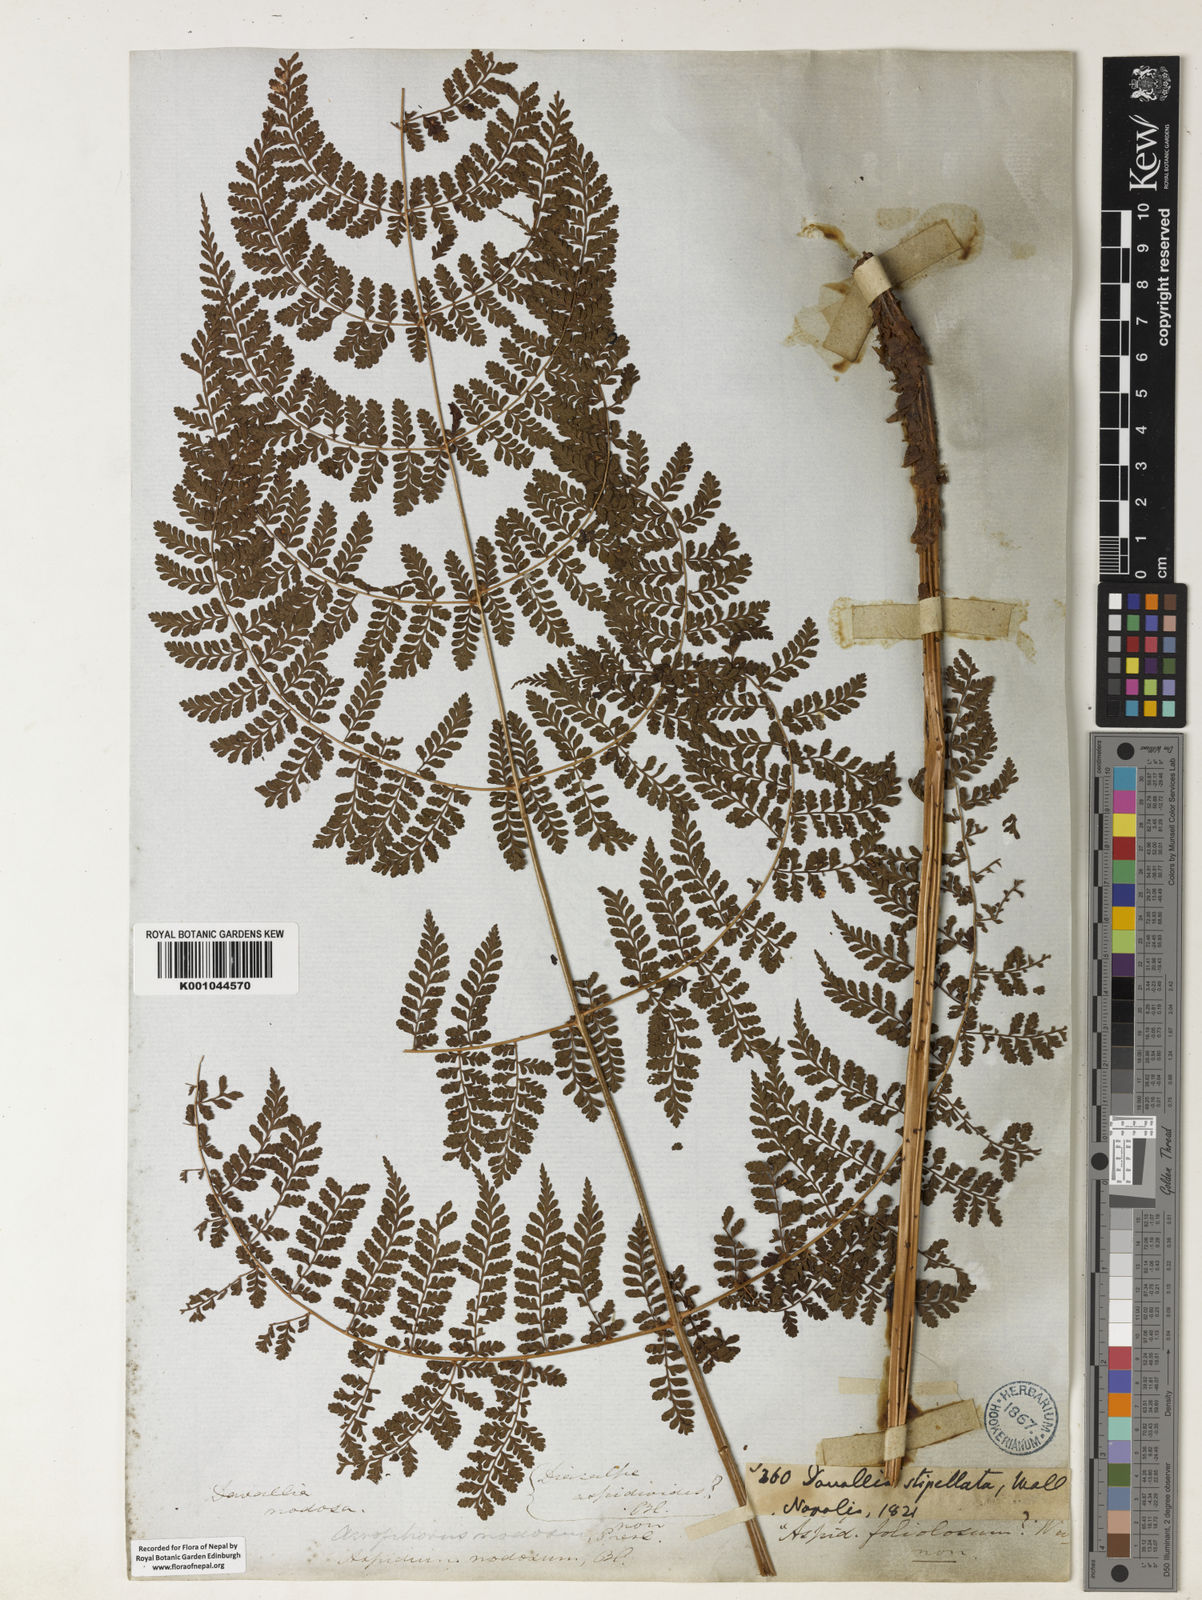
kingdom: Plantae
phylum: Tracheophyta
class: Polypodiopsida
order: Polypodiales
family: Dryopteridaceae
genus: Dryopteris
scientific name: Dryopteris nodosa
